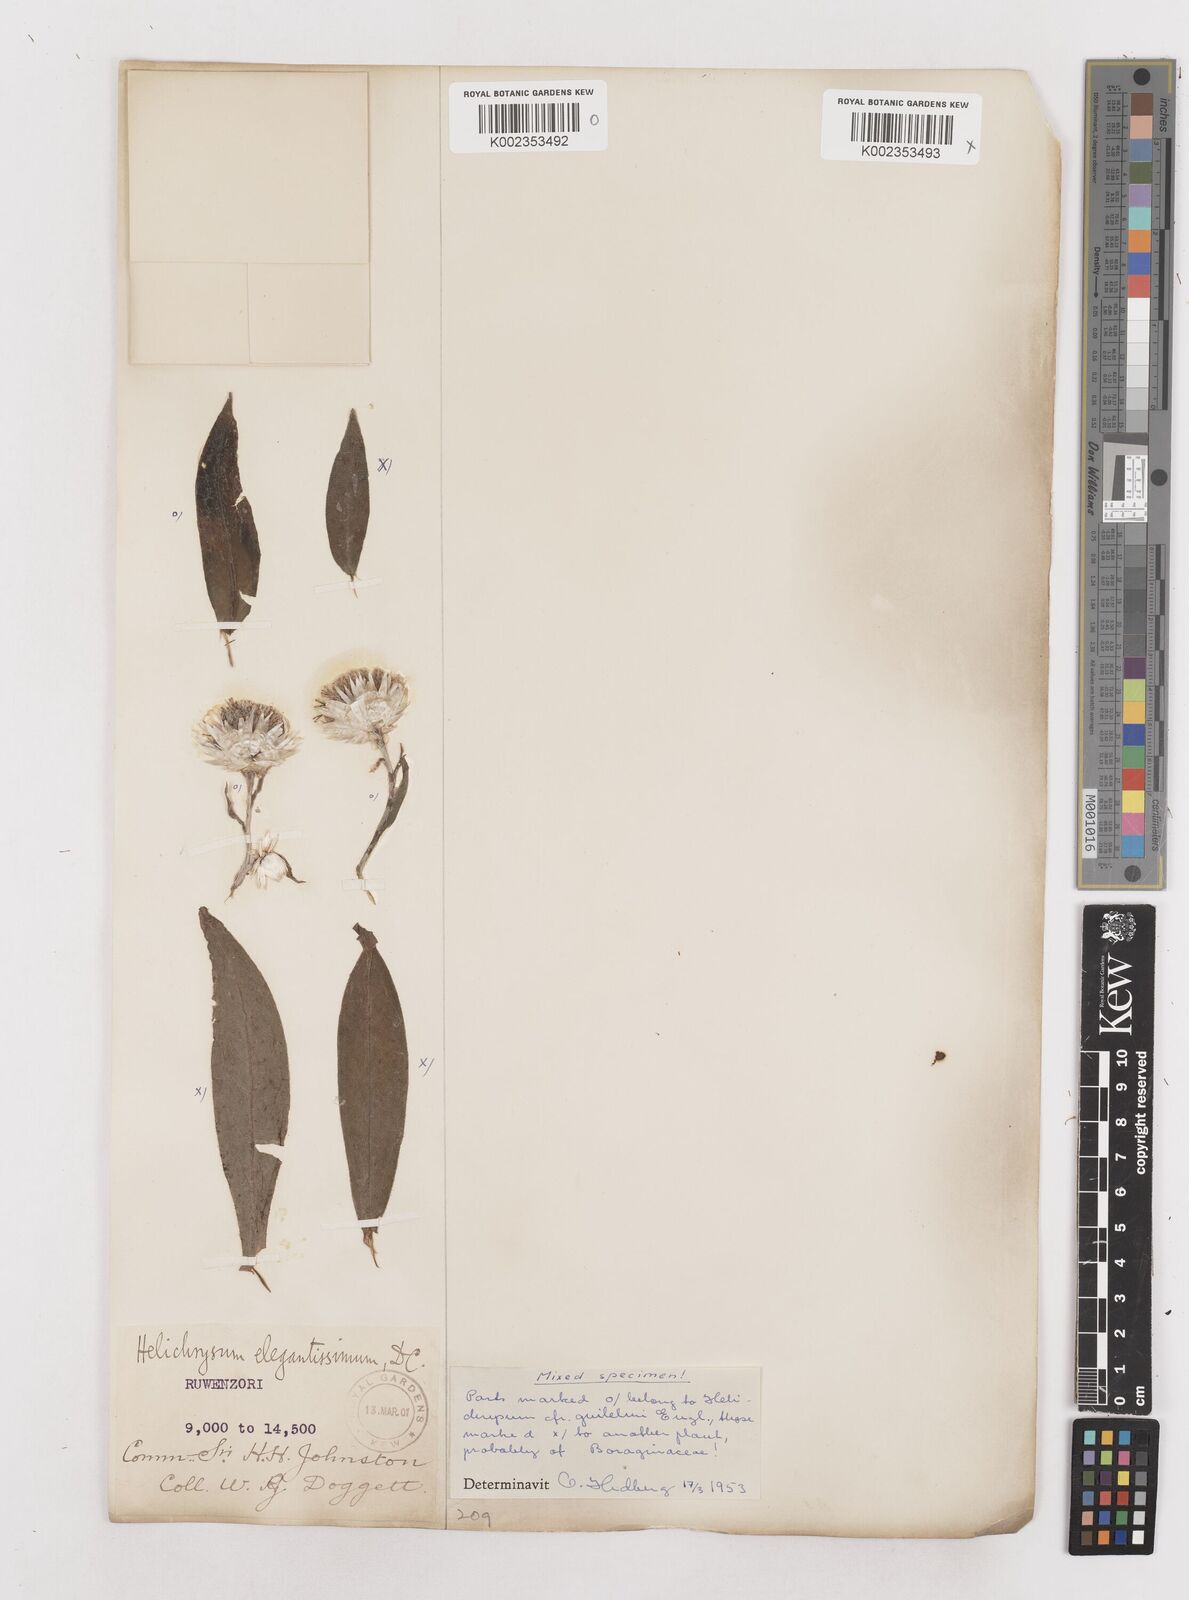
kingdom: Plantae
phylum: Tracheophyta
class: Magnoliopsida
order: Asterales
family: Asteraceae
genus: Helichrysum
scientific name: Helichrysum formosissimum
